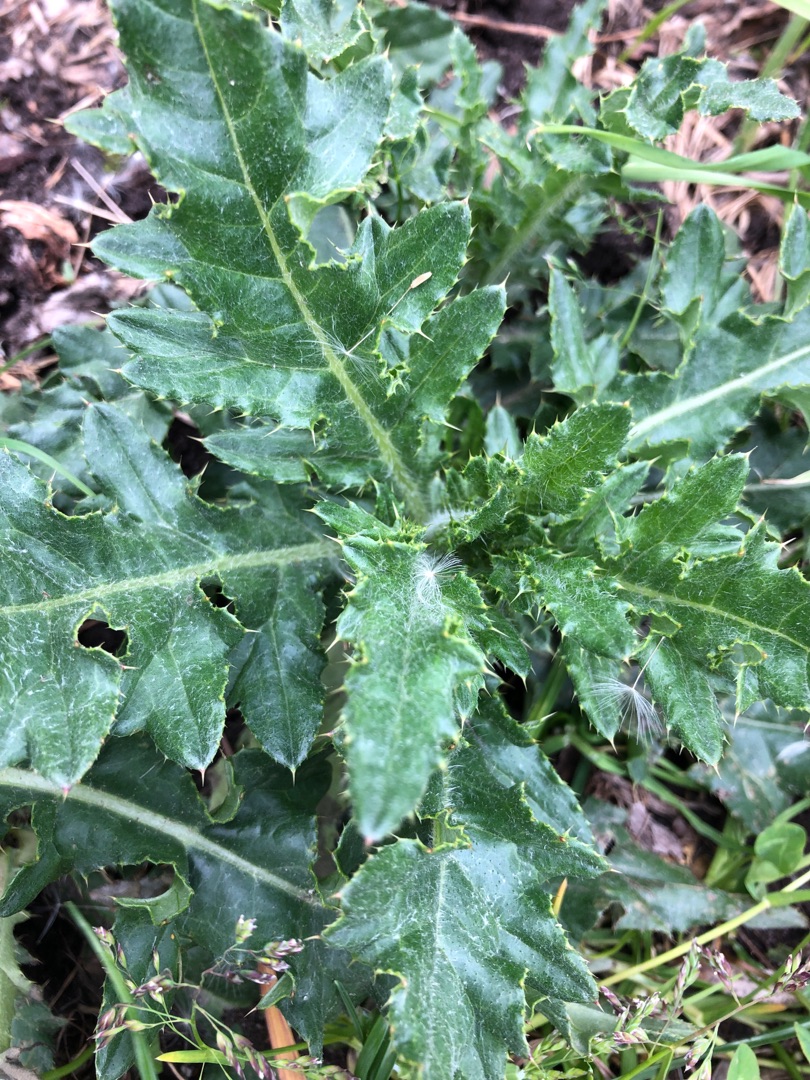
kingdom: Plantae
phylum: Tracheophyta
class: Magnoliopsida
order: Asterales
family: Asteraceae
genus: Cirsium
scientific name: Cirsium arvense
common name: Ager-tidsel
